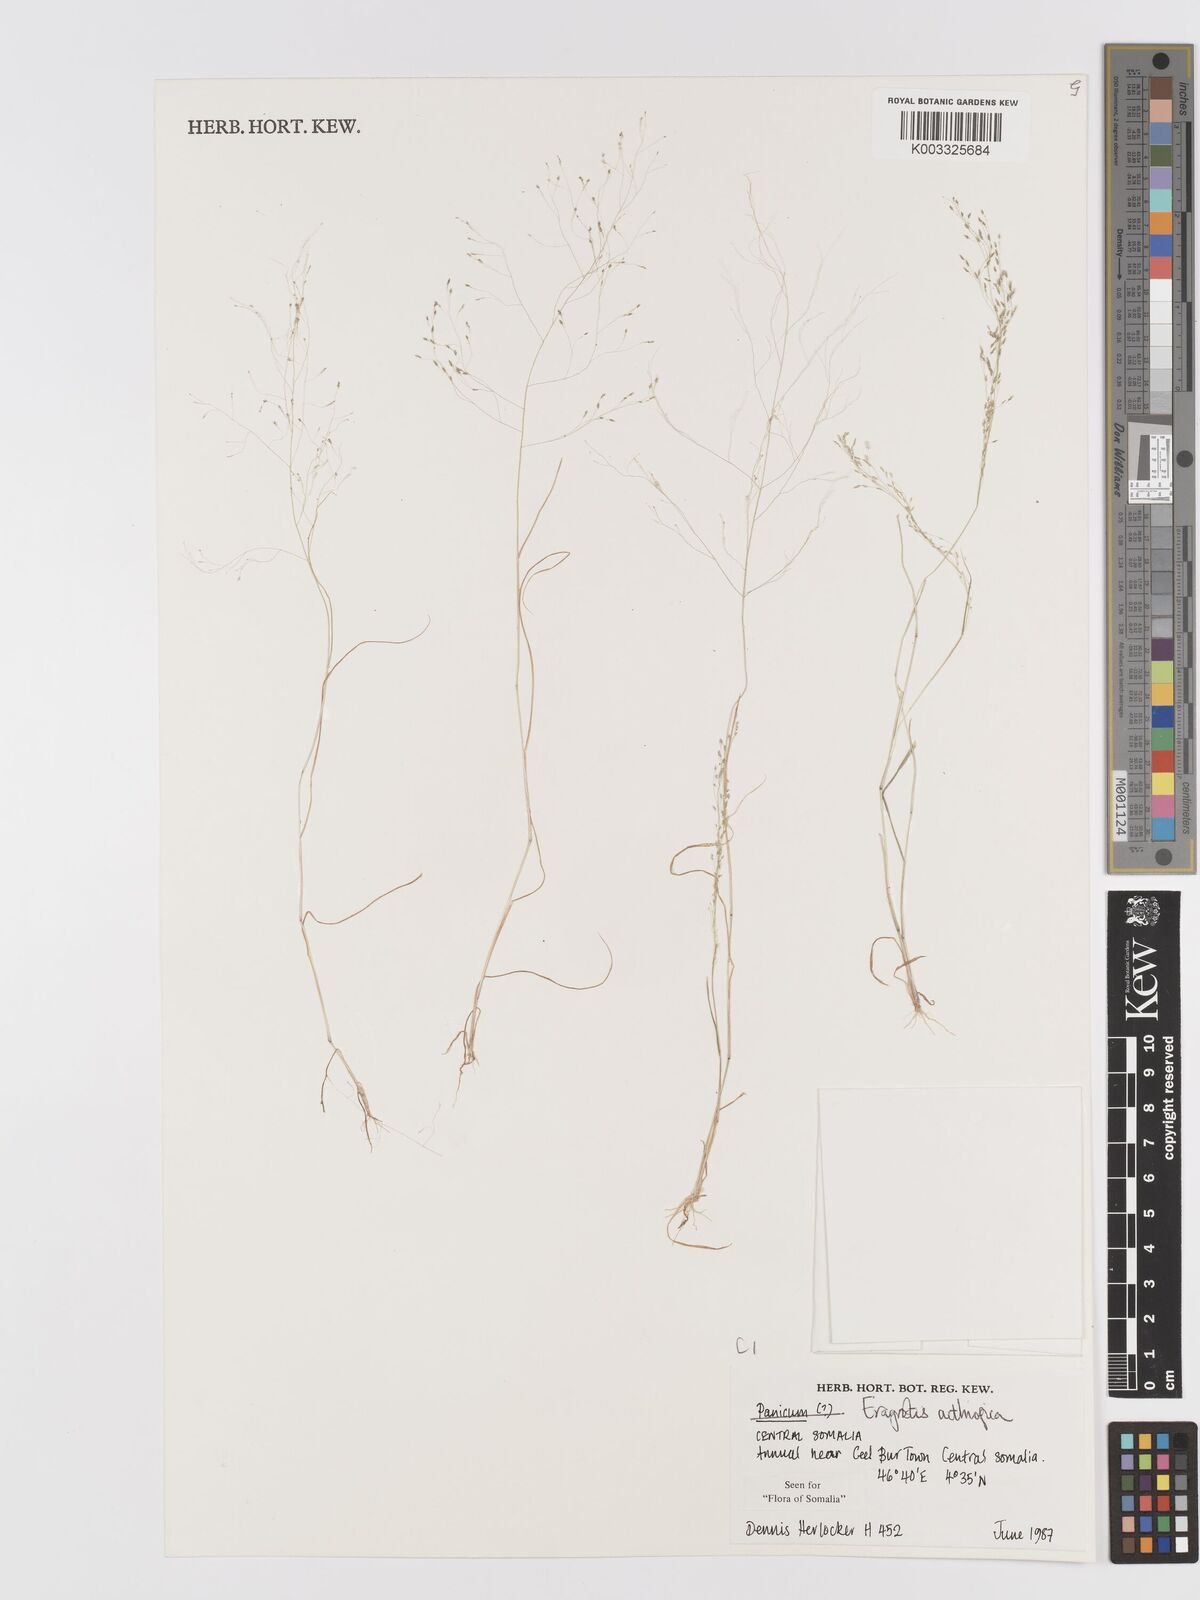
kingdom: Plantae
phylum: Tracheophyta
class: Liliopsida
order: Poales
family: Poaceae
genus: Eragrostis
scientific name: Eragrostis aethiopica
